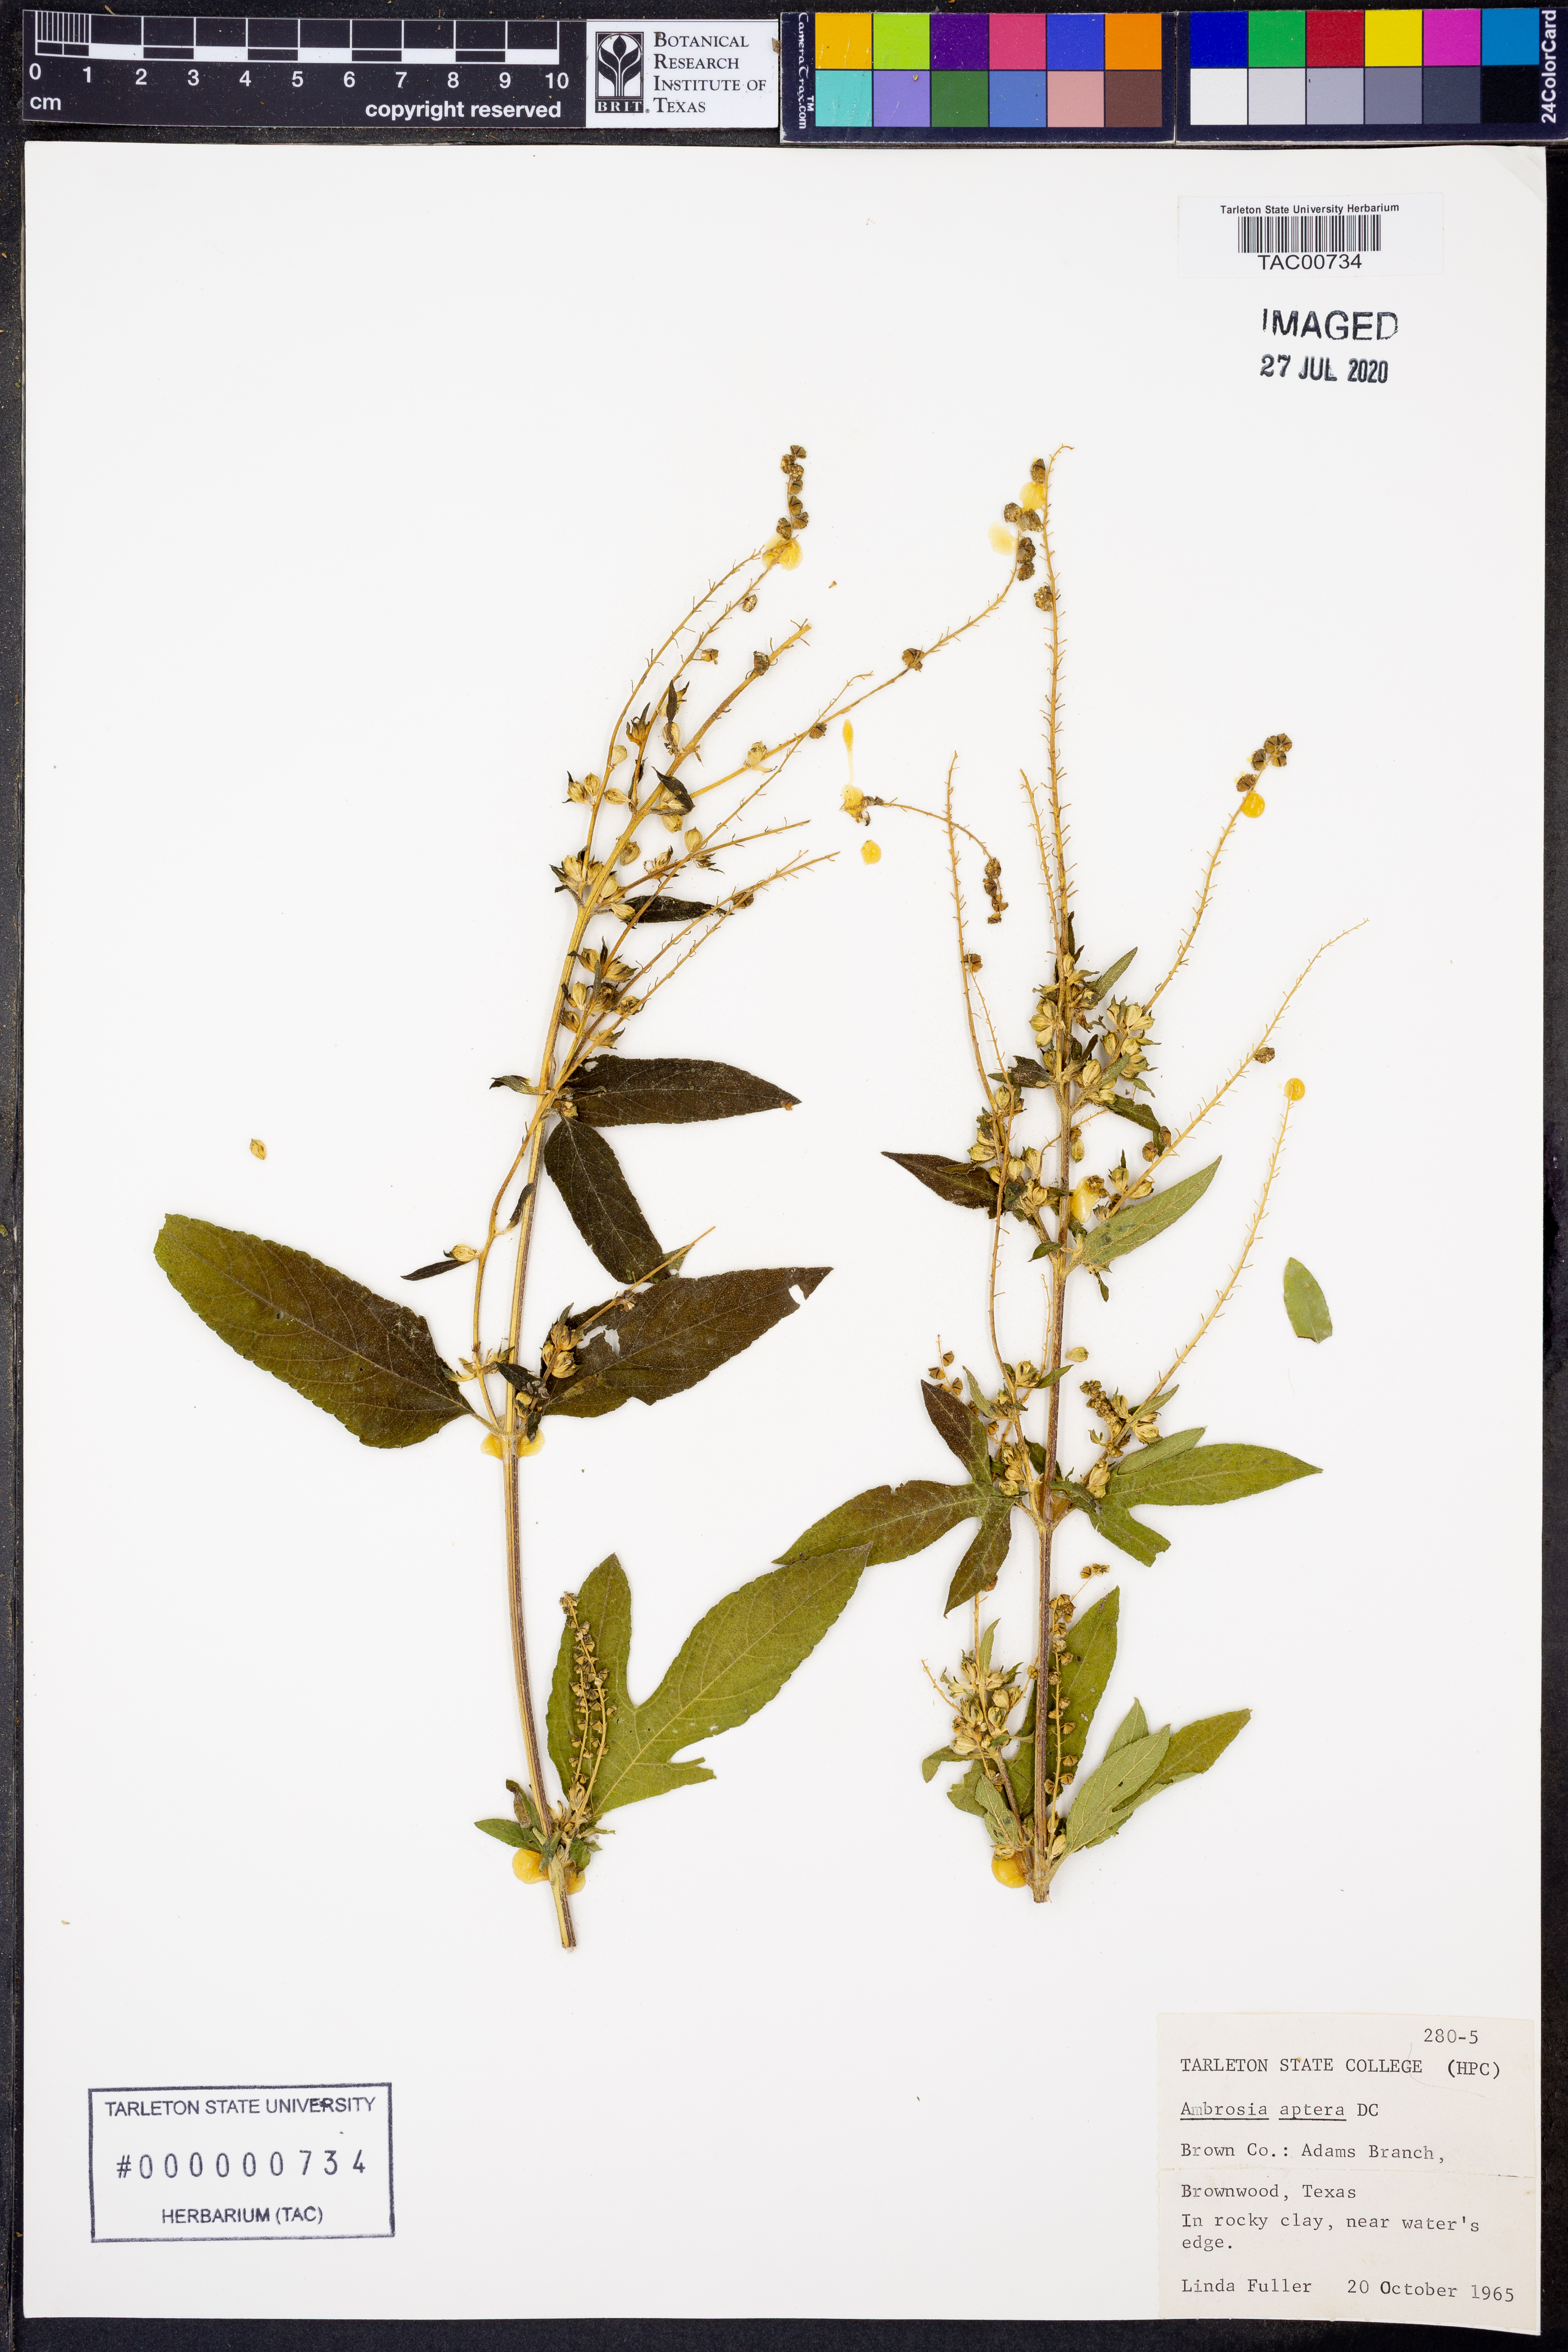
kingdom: Plantae
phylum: Tracheophyta
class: Magnoliopsida
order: Asterales
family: Asteraceae
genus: Ambrosia
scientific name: Ambrosia trifida
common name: Giant ragweed
